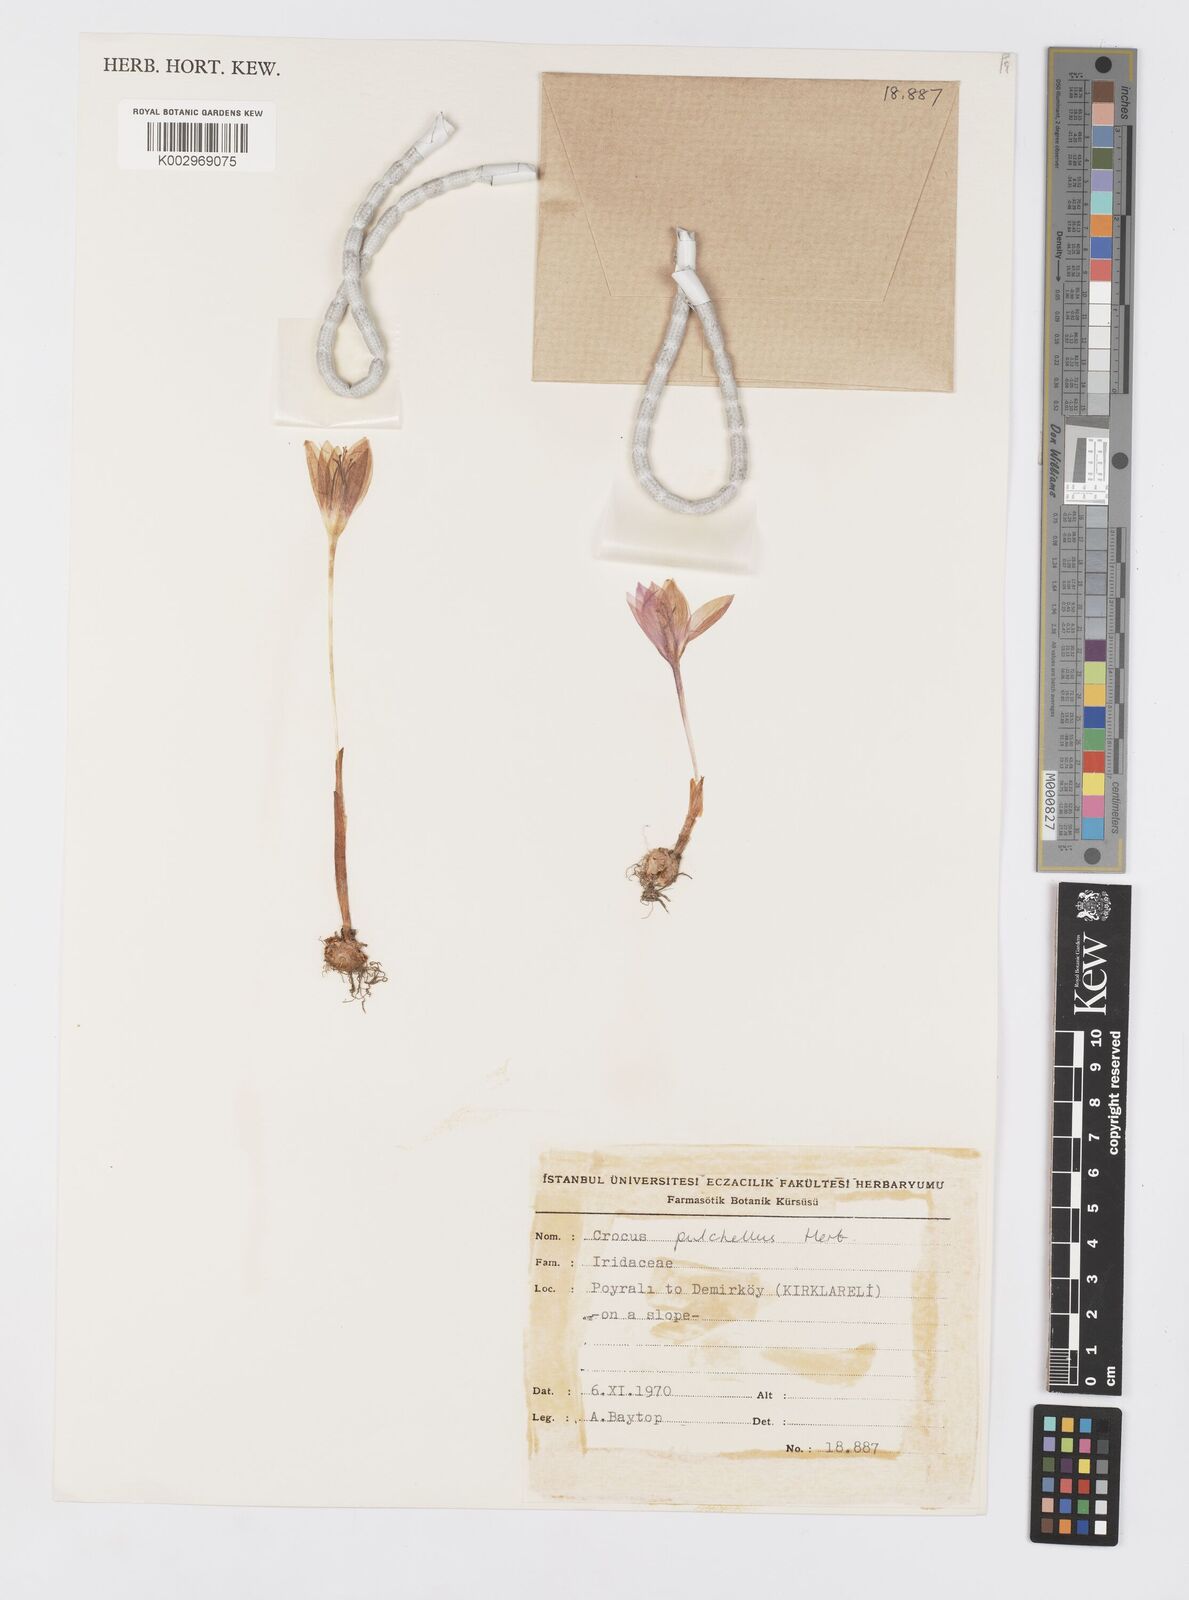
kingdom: Plantae
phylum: Tracheophyta
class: Liliopsida
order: Asparagales
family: Iridaceae
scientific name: Iridaceae
